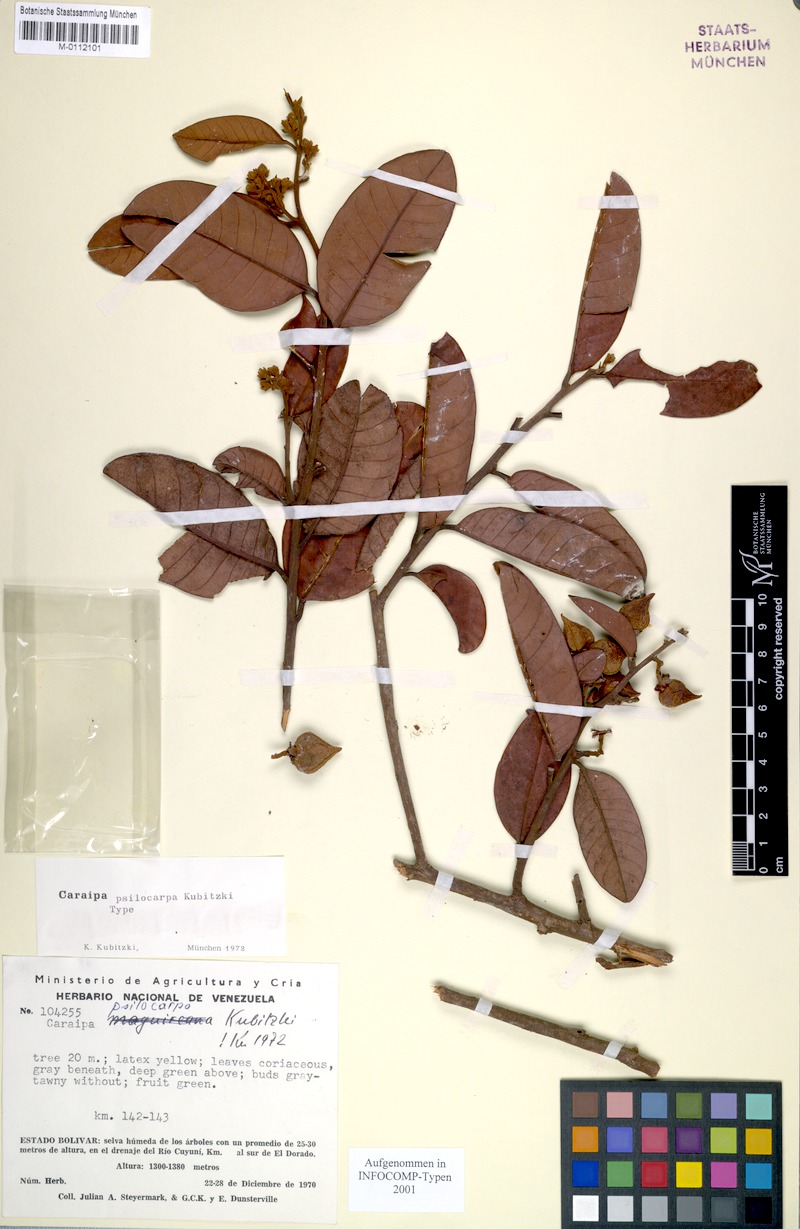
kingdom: Plantae
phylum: Tracheophyta
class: Magnoliopsida
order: Malpighiales
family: Calophyllaceae
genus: Caraipa
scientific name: Caraipa psilocarpa
